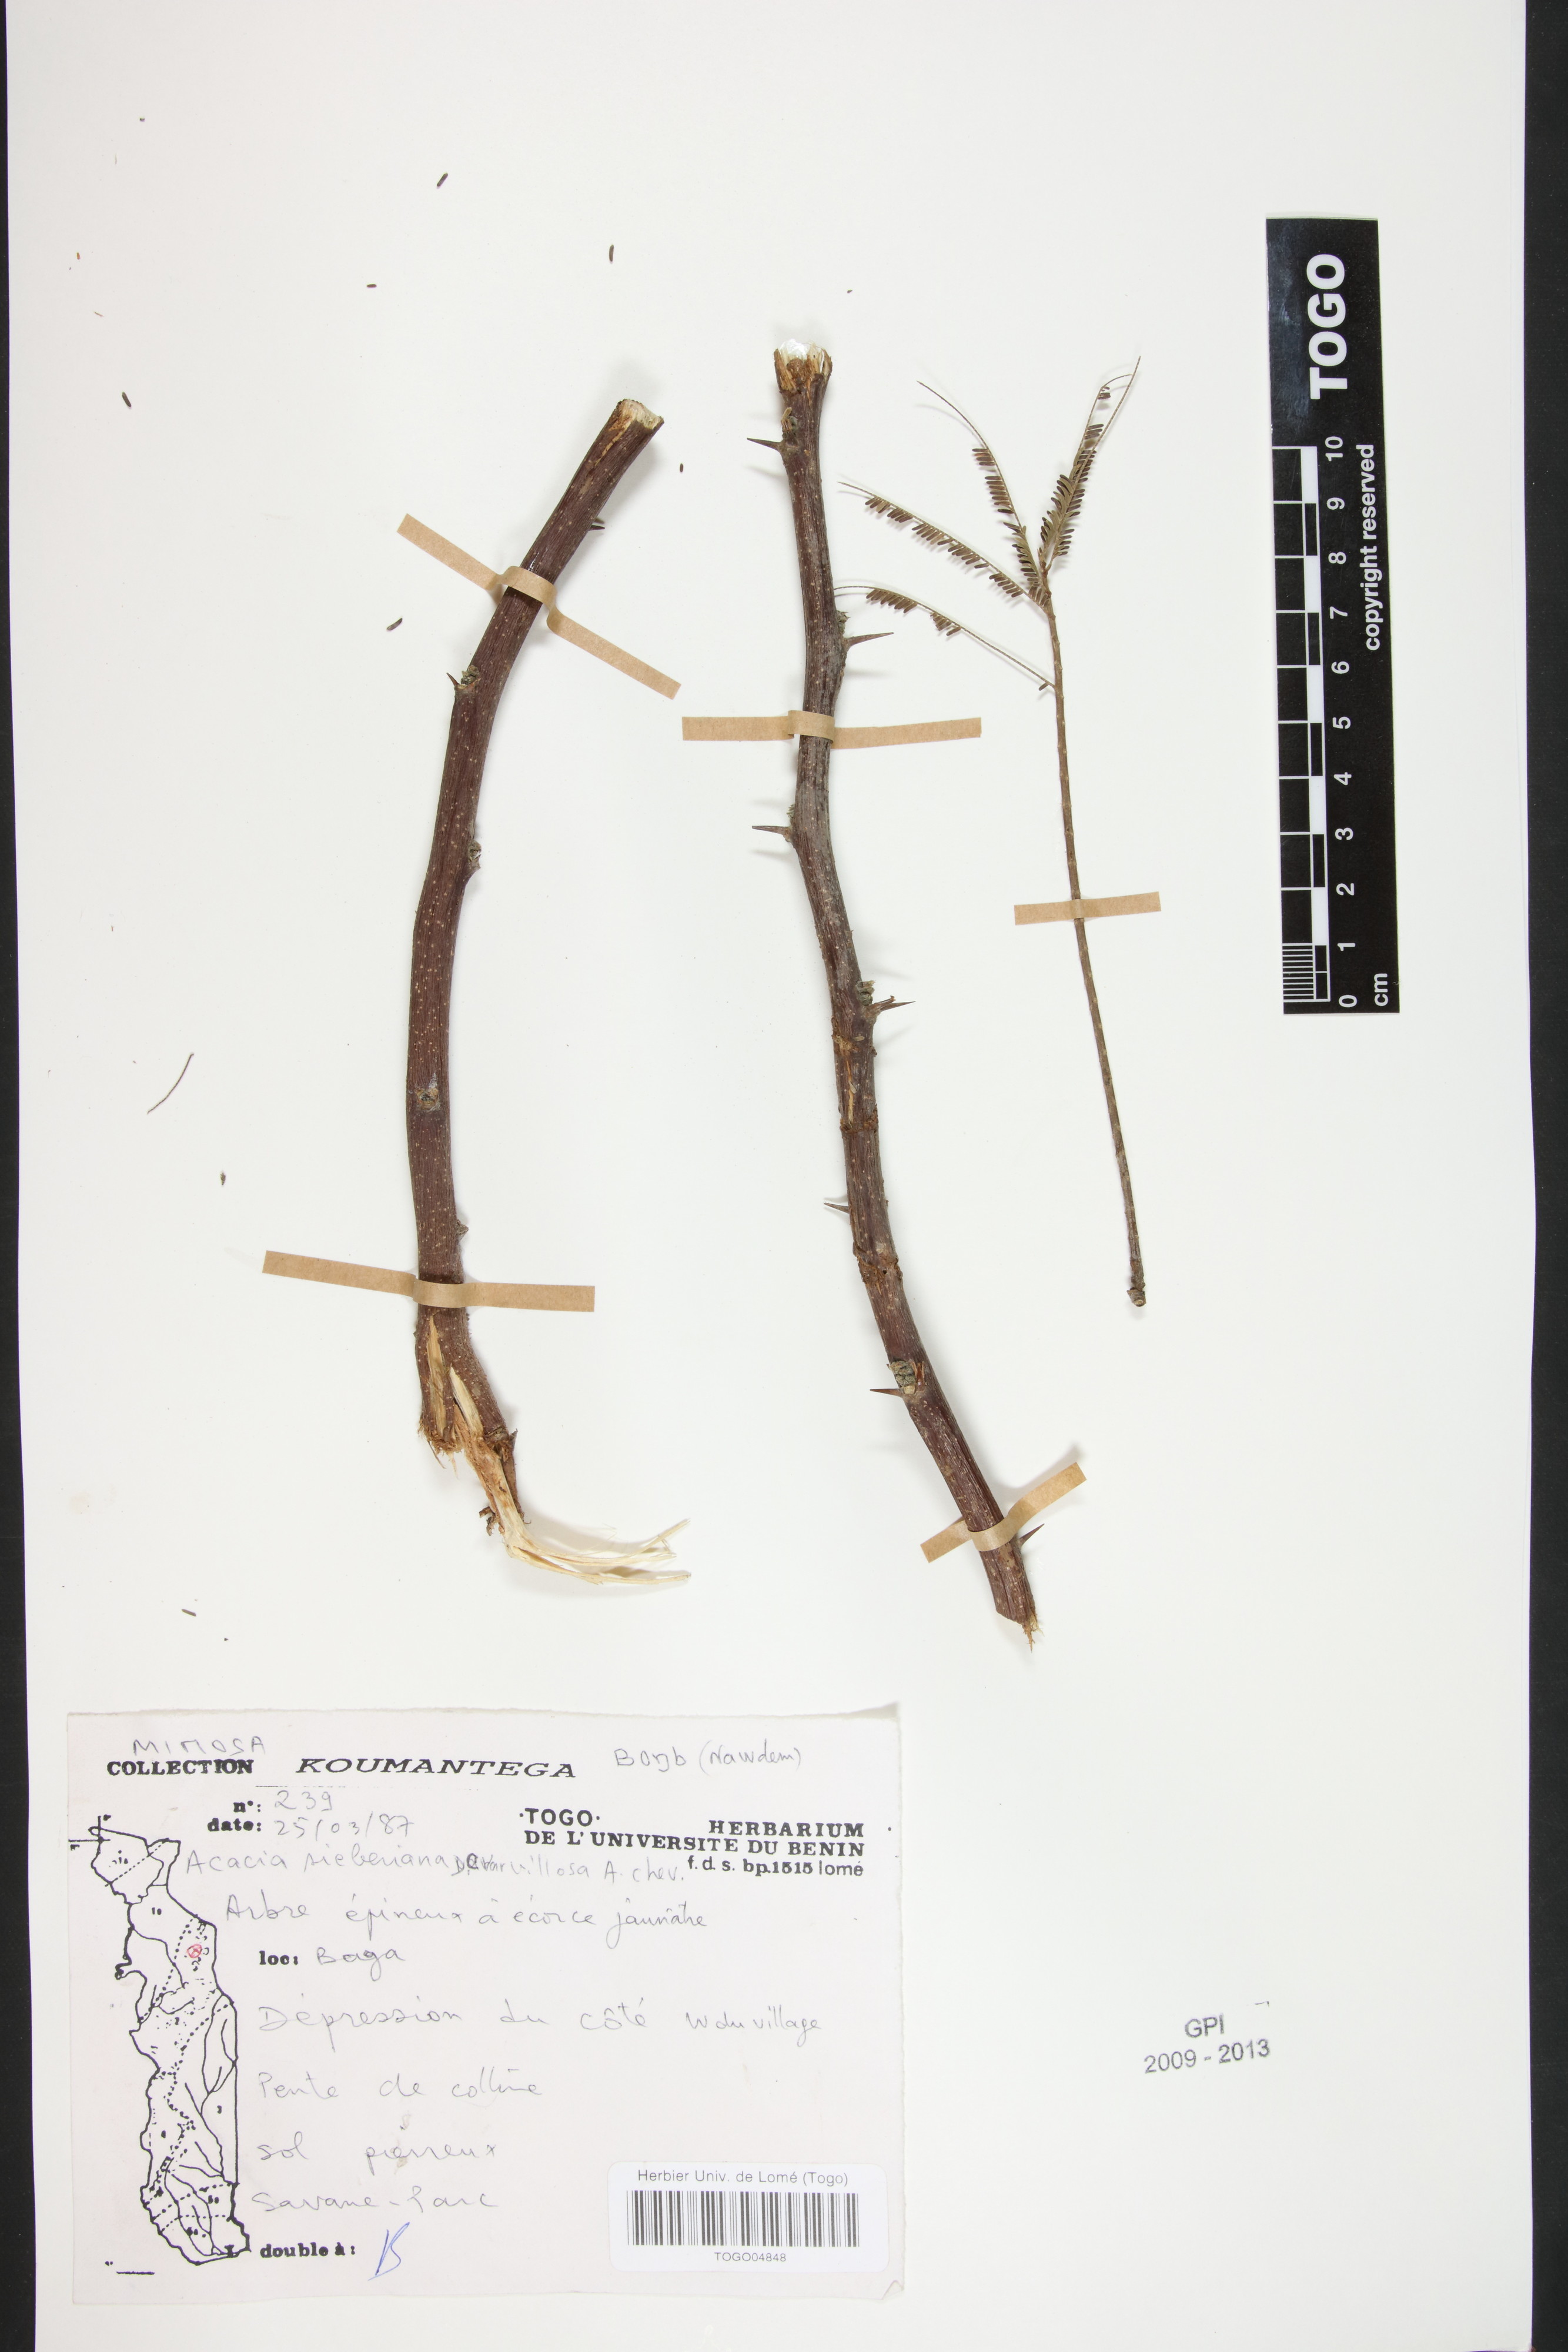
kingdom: Plantae
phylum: Tracheophyta
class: Magnoliopsida
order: Fabales
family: Fabaceae
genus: Vachellia
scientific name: Vachellia sieberiana
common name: Flat-topped thorn
